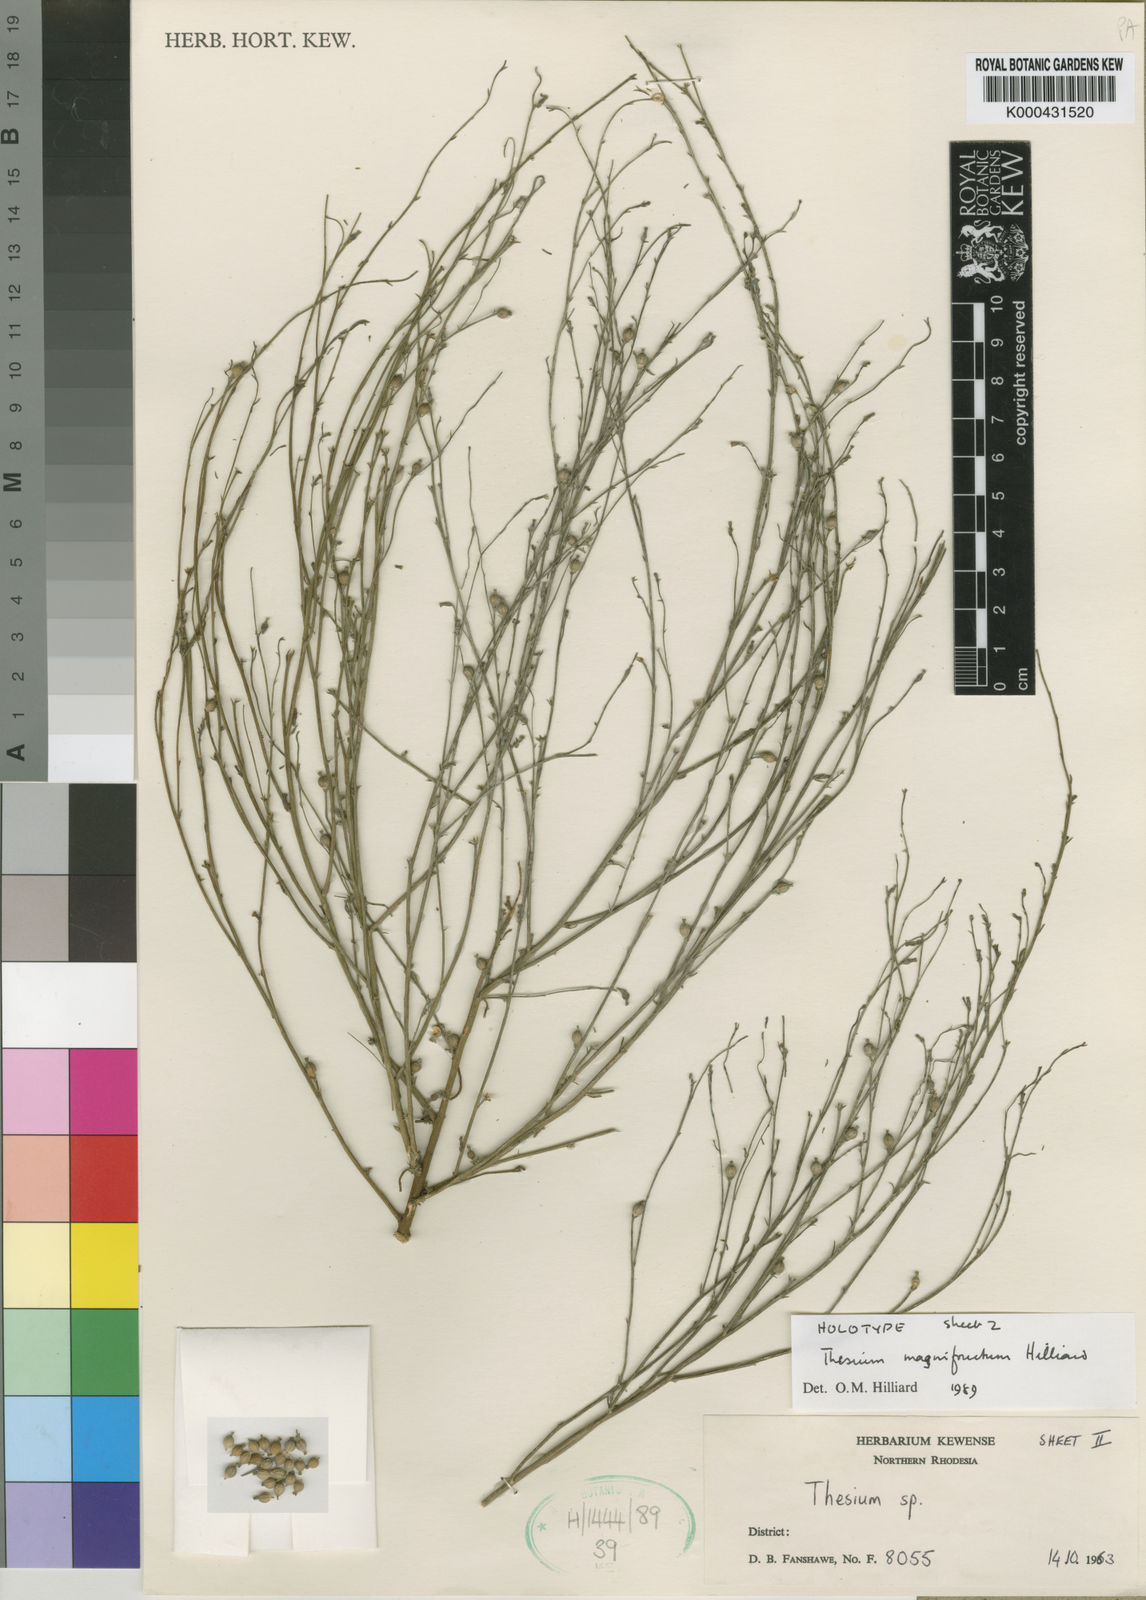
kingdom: Plantae
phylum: Tracheophyta
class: Magnoliopsida
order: Santalales
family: Thesiaceae
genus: Thesium
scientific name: Thesium magnifructum
